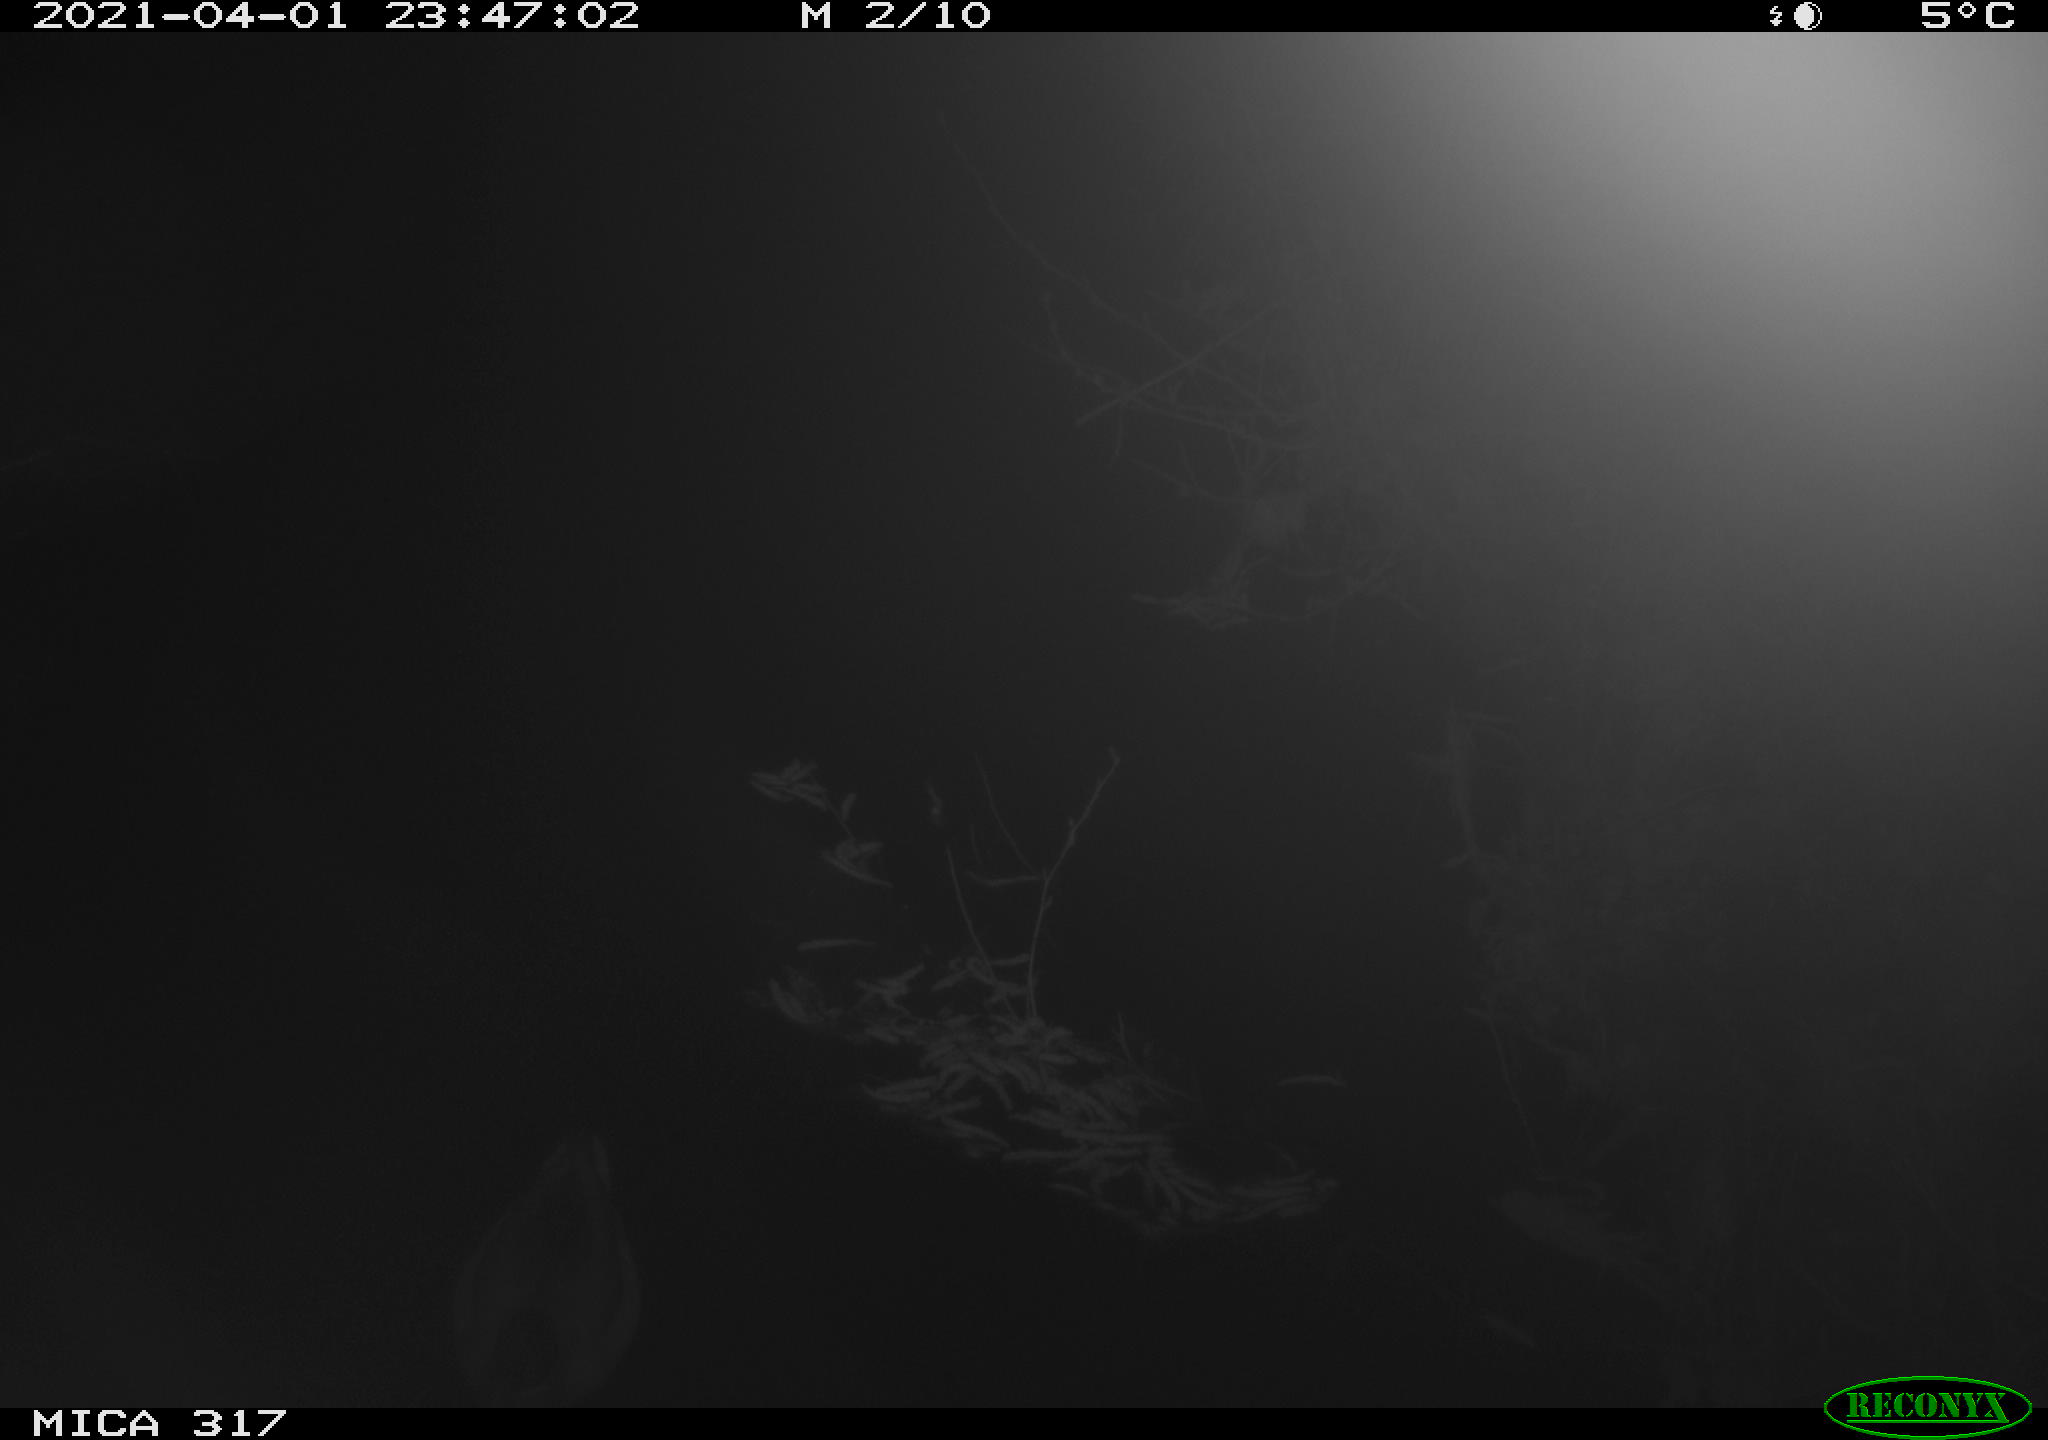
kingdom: Animalia
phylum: Chordata
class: Aves
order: Anseriformes
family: Anatidae
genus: Anas
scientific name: Anas platyrhynchos
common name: Mallard
